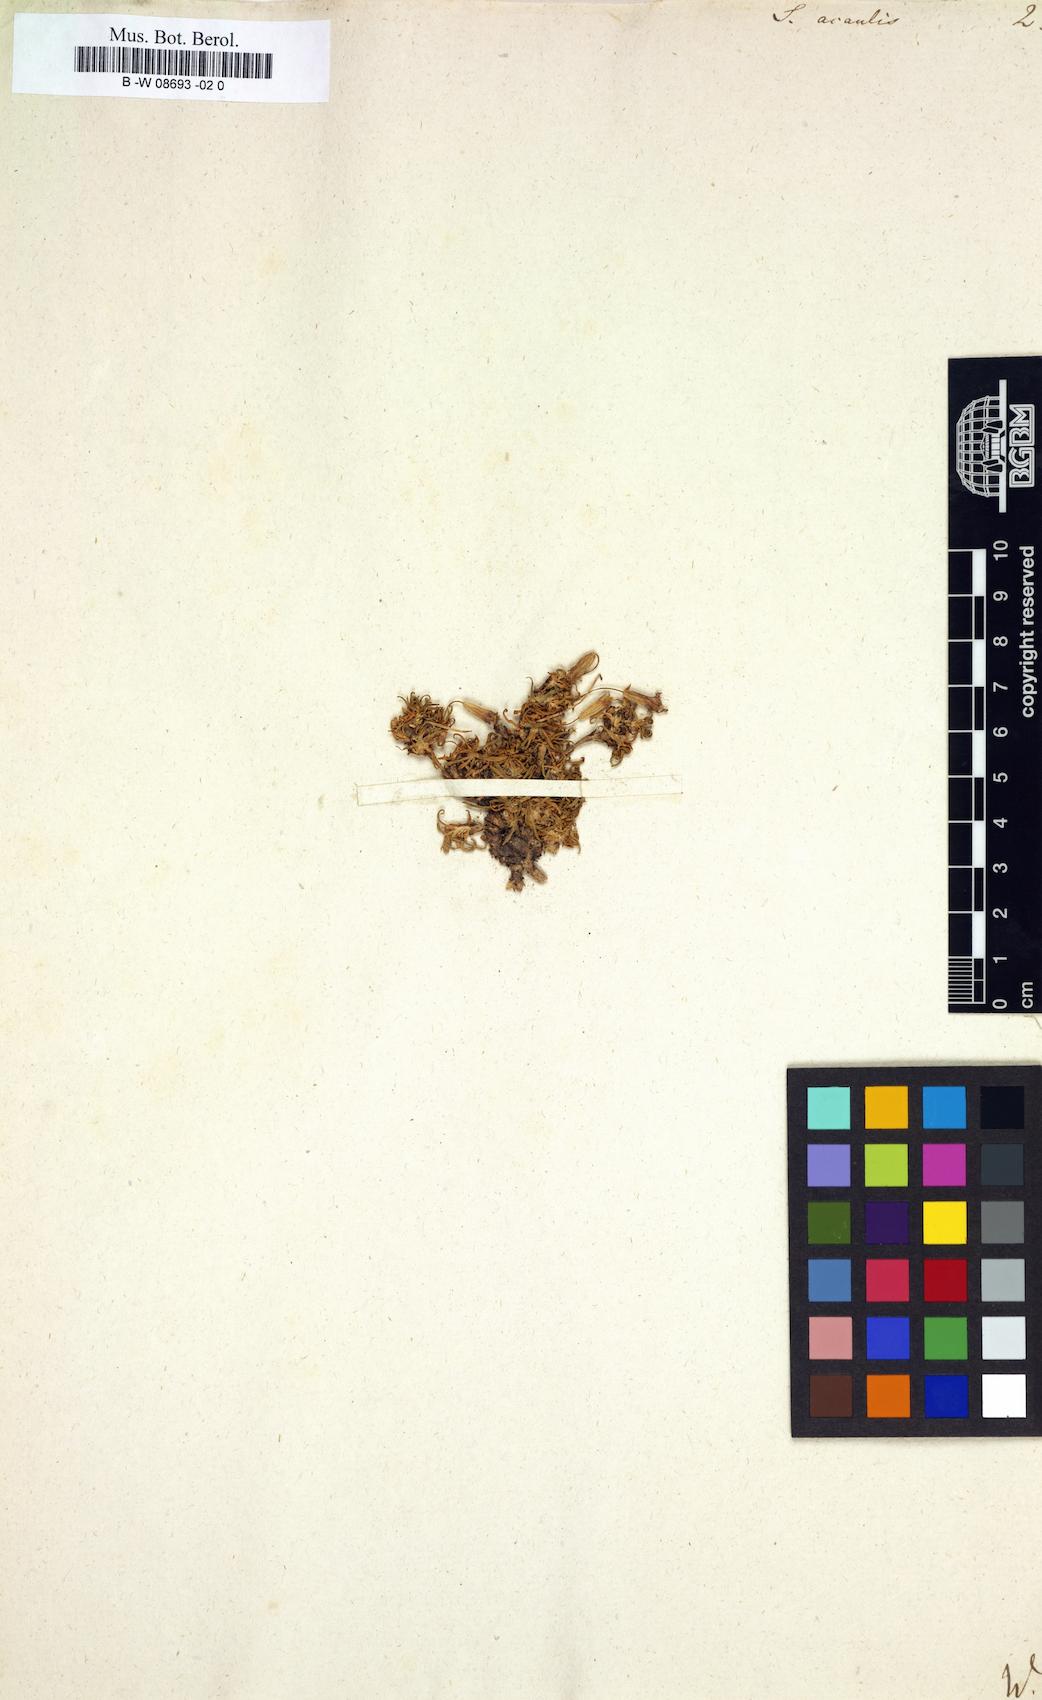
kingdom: Plantae
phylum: Tracheophyta
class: Magnoliopsida
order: Caryophyllales
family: Caryophyllaceae
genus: Silene
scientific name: Silene acaulis
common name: Moss campion
